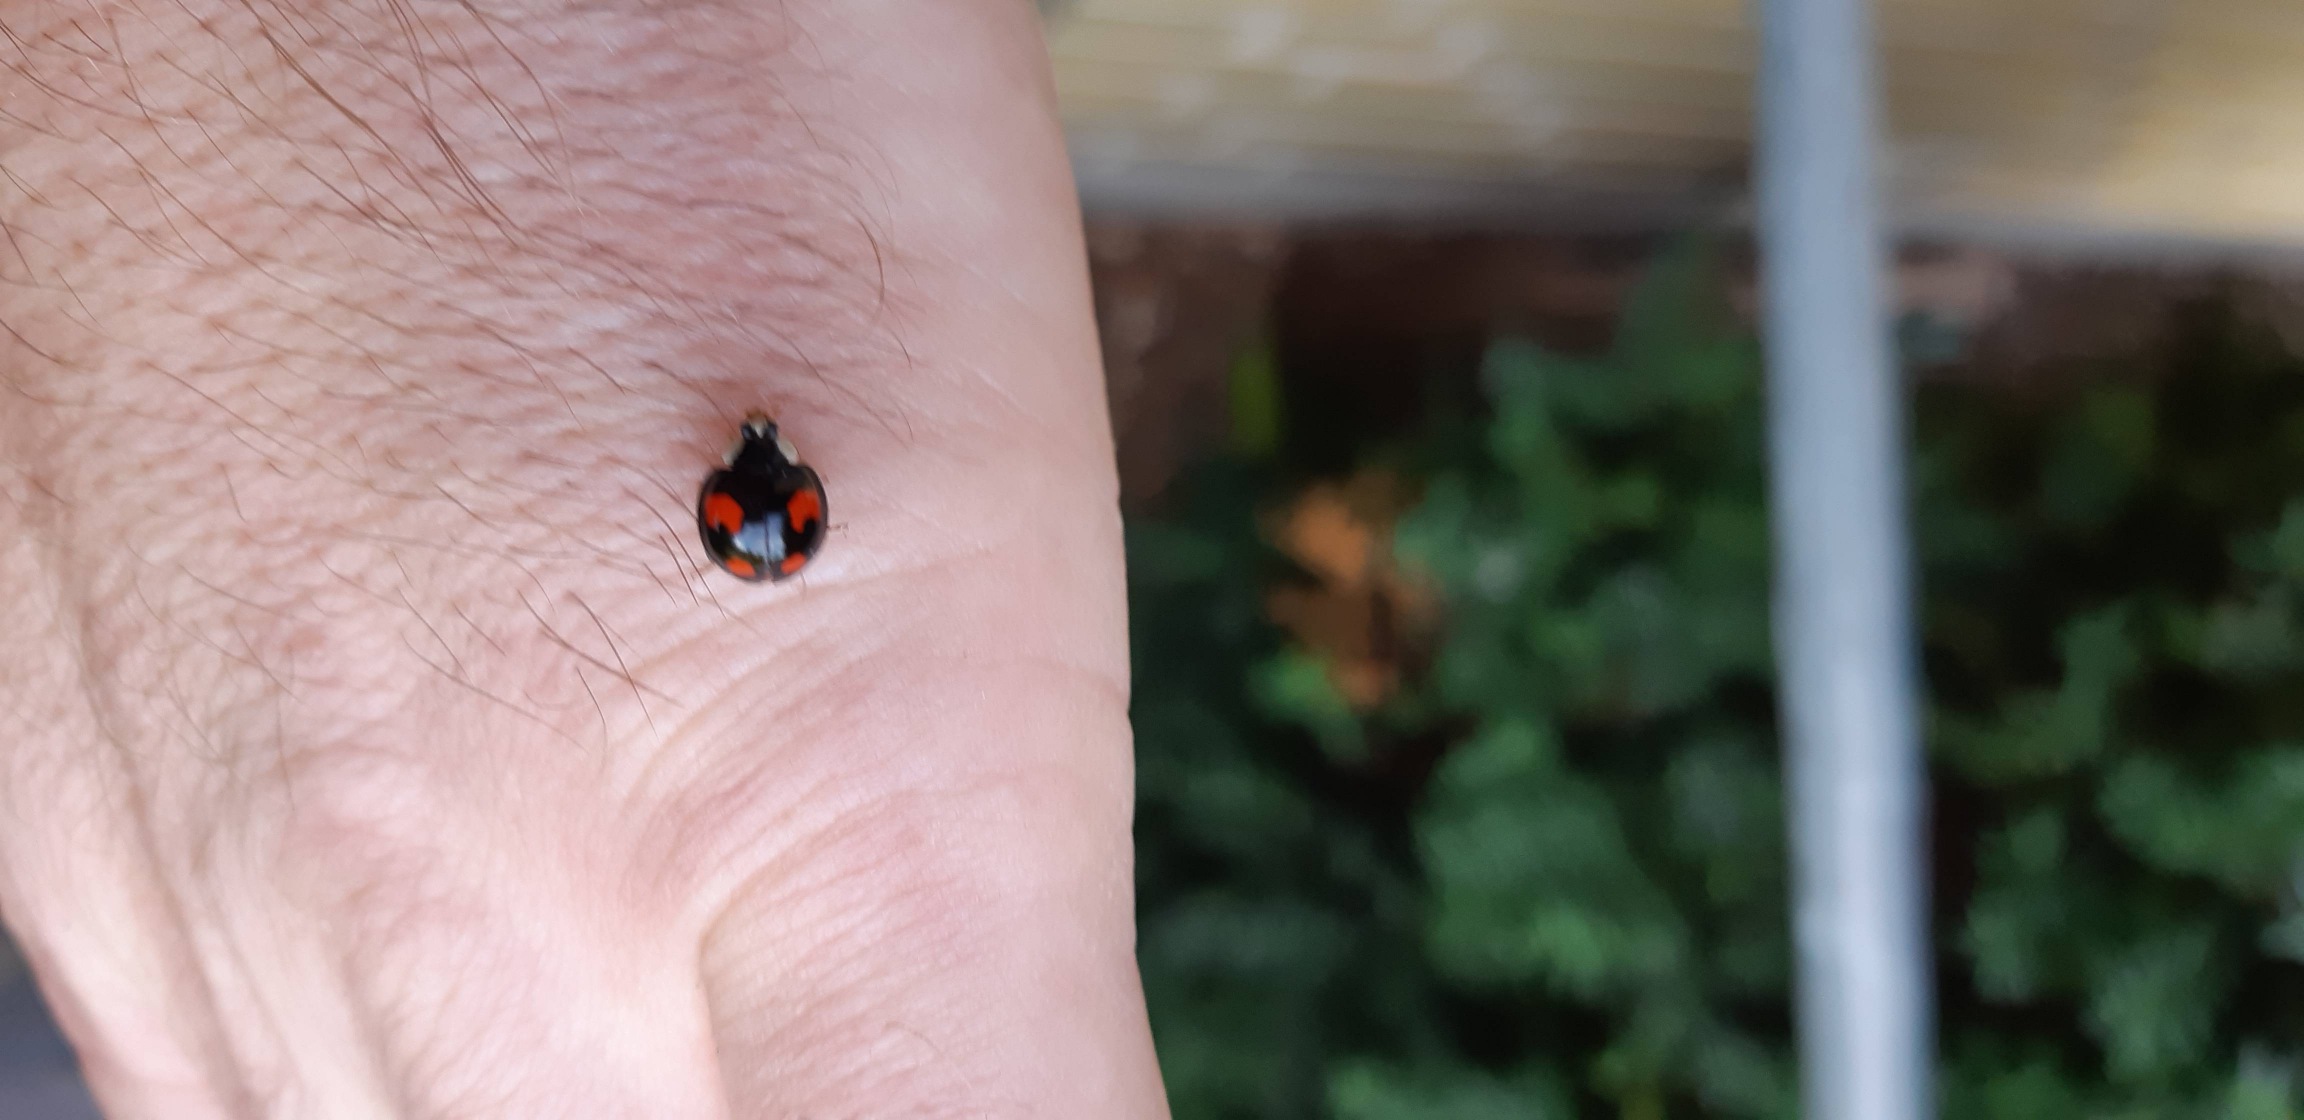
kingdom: Animalia
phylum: Arthropoda
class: Insecta
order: Coleoptera
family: Coccinellidae
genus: Harmonia
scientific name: Harmonia axyridis
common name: Harlekinmariehøne
